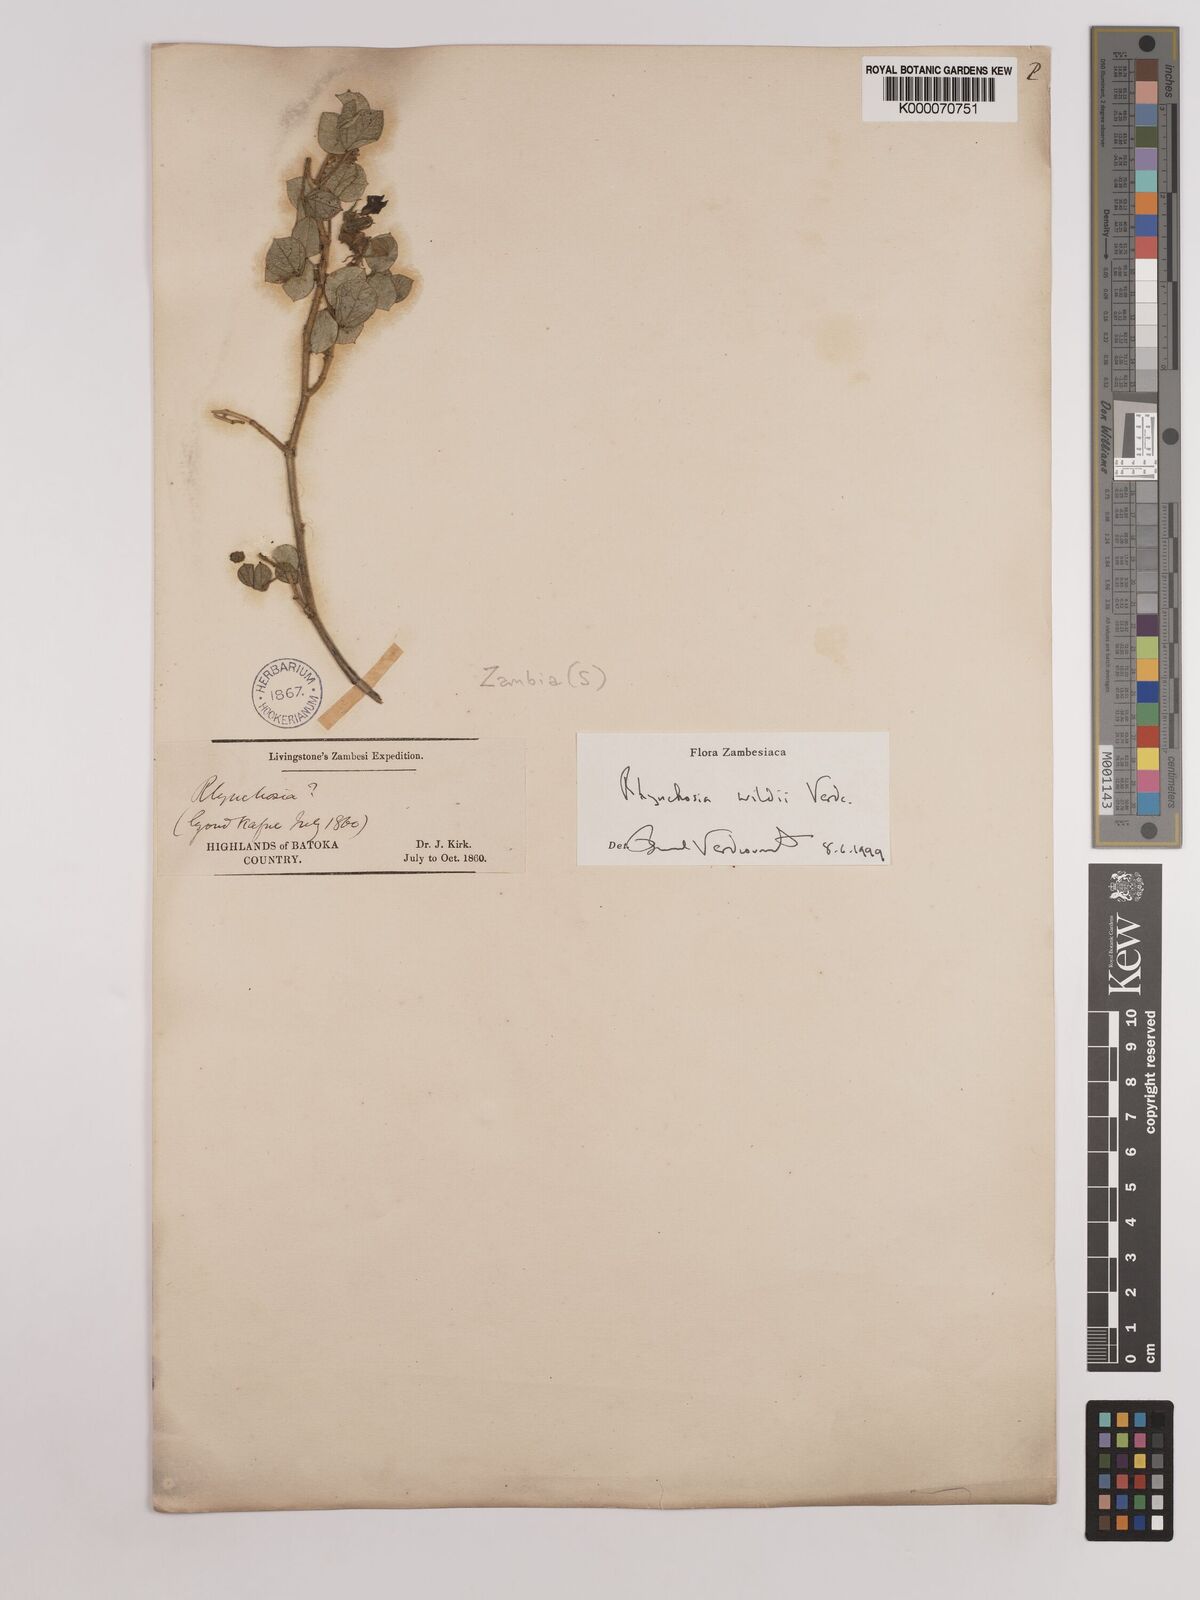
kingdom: Plantae
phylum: Tracheophyta
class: Magnoliopsida
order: Fabales
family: Fabaceae
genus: Rhynchosia
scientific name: Rhynchosia wildii
